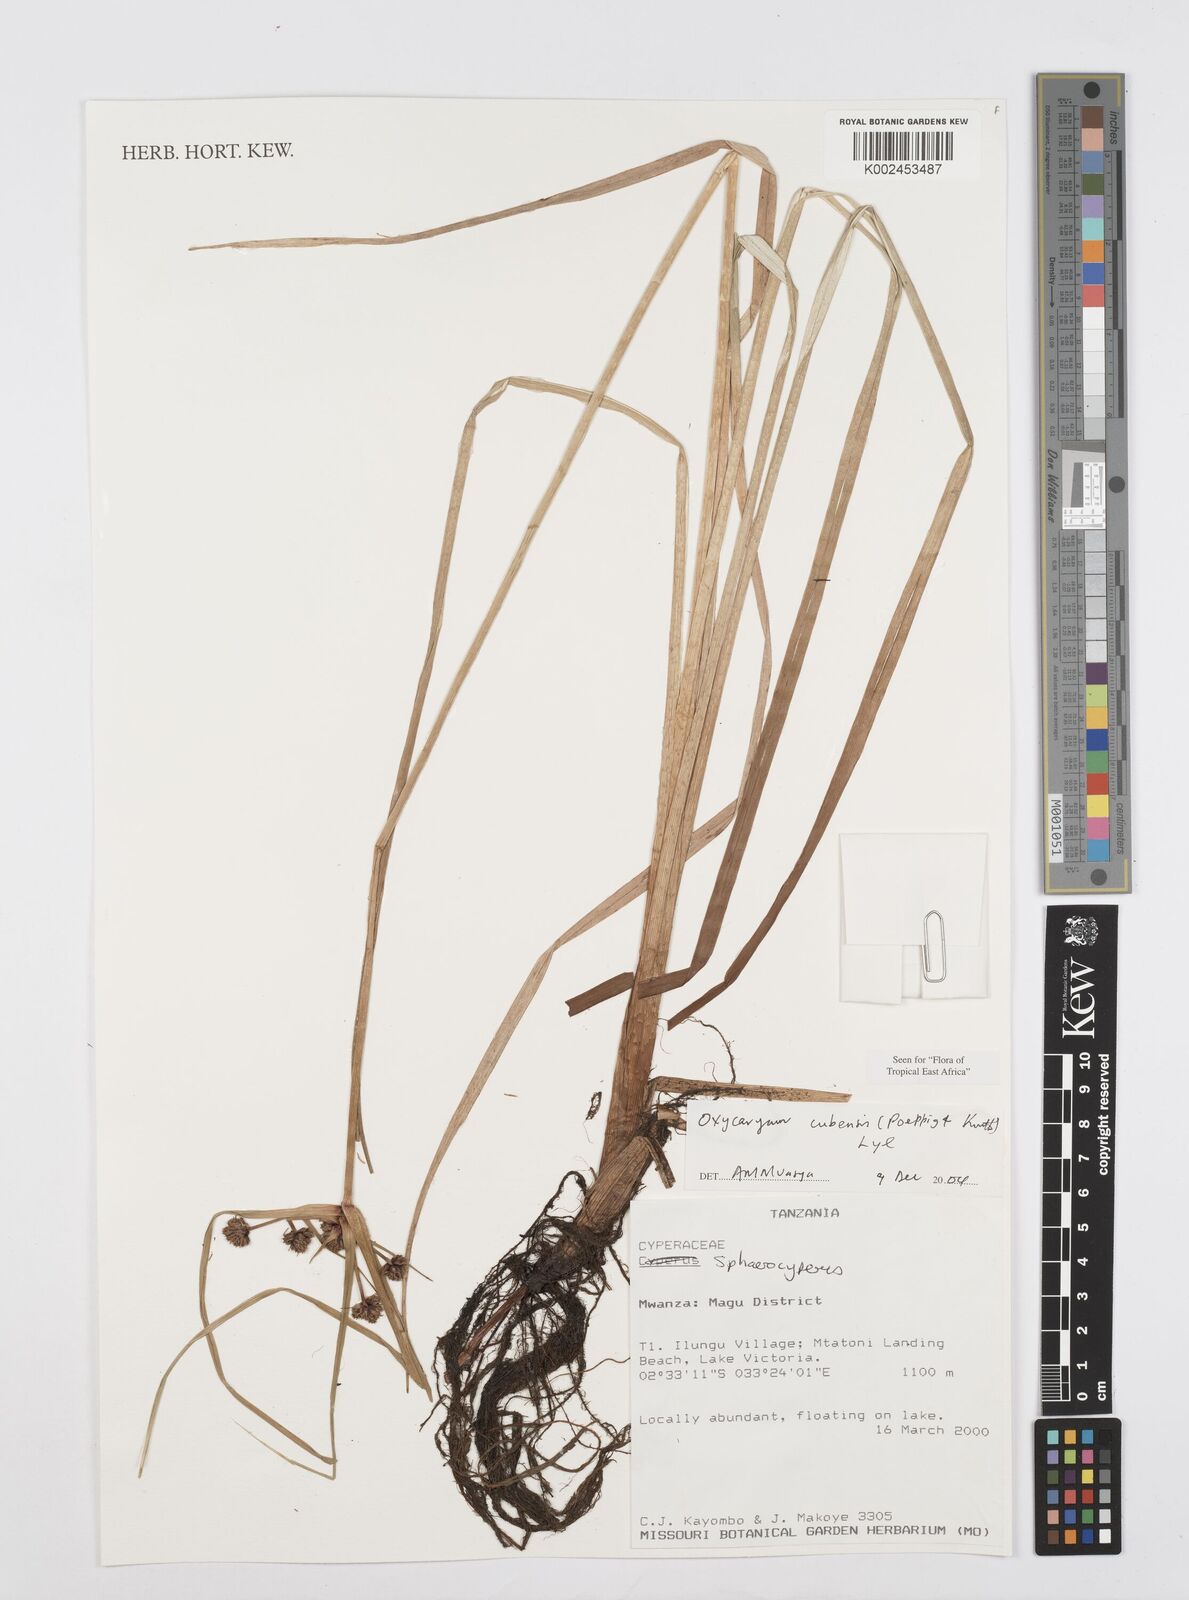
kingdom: Plantae
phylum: Tracheophyta
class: Liliopsida
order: Poales
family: Cyperaceae
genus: Cyperus
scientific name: Cyperus elegans
